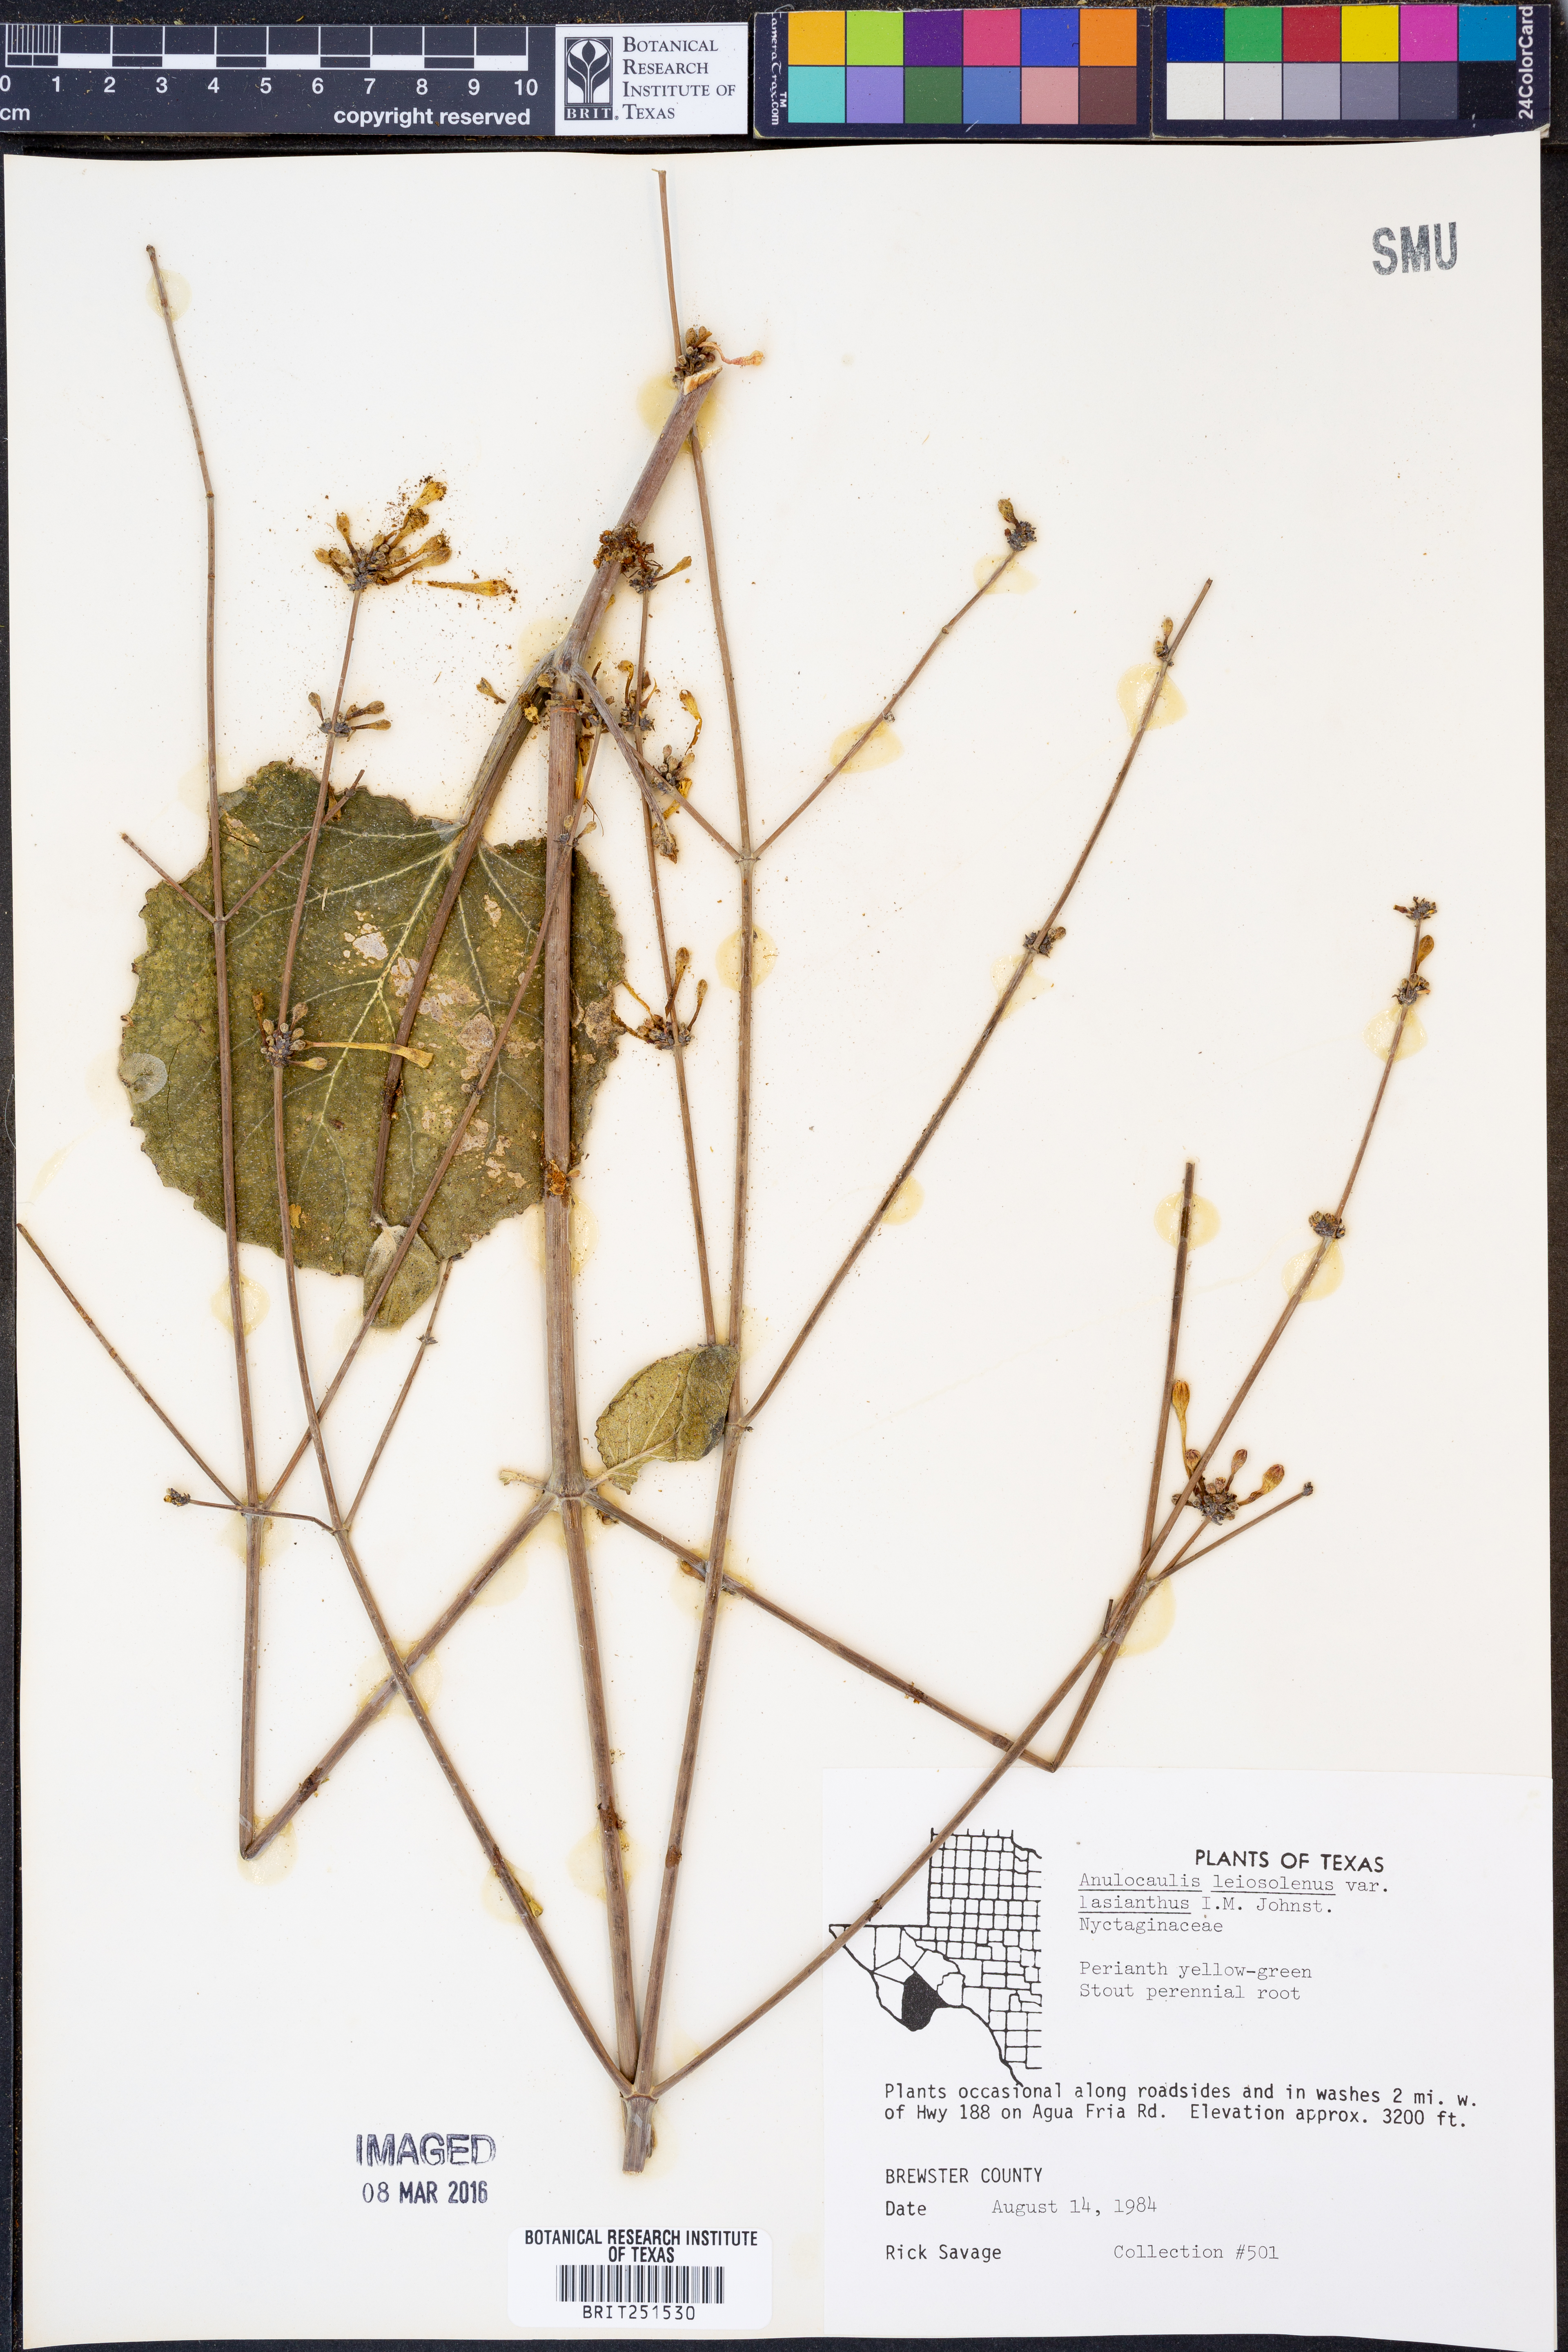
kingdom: Plantae
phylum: Tracheophyta
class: Magnoliopsida
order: Caryophyllales
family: Nyctaginaceae
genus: Anulocaulis
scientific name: Anulocaulis leiosolenus
